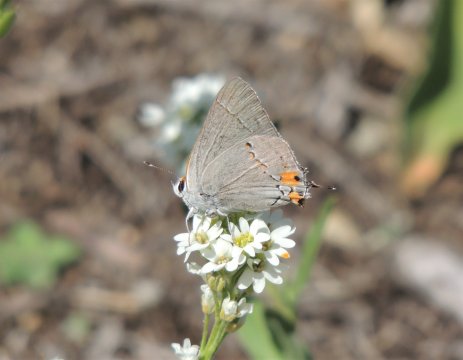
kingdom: Animalia
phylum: Arthropoda
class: Insecta
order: Lepidoptera
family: Lycaenidae
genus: Strymon
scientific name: Strymon melinus
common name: Gray Hairstreak
